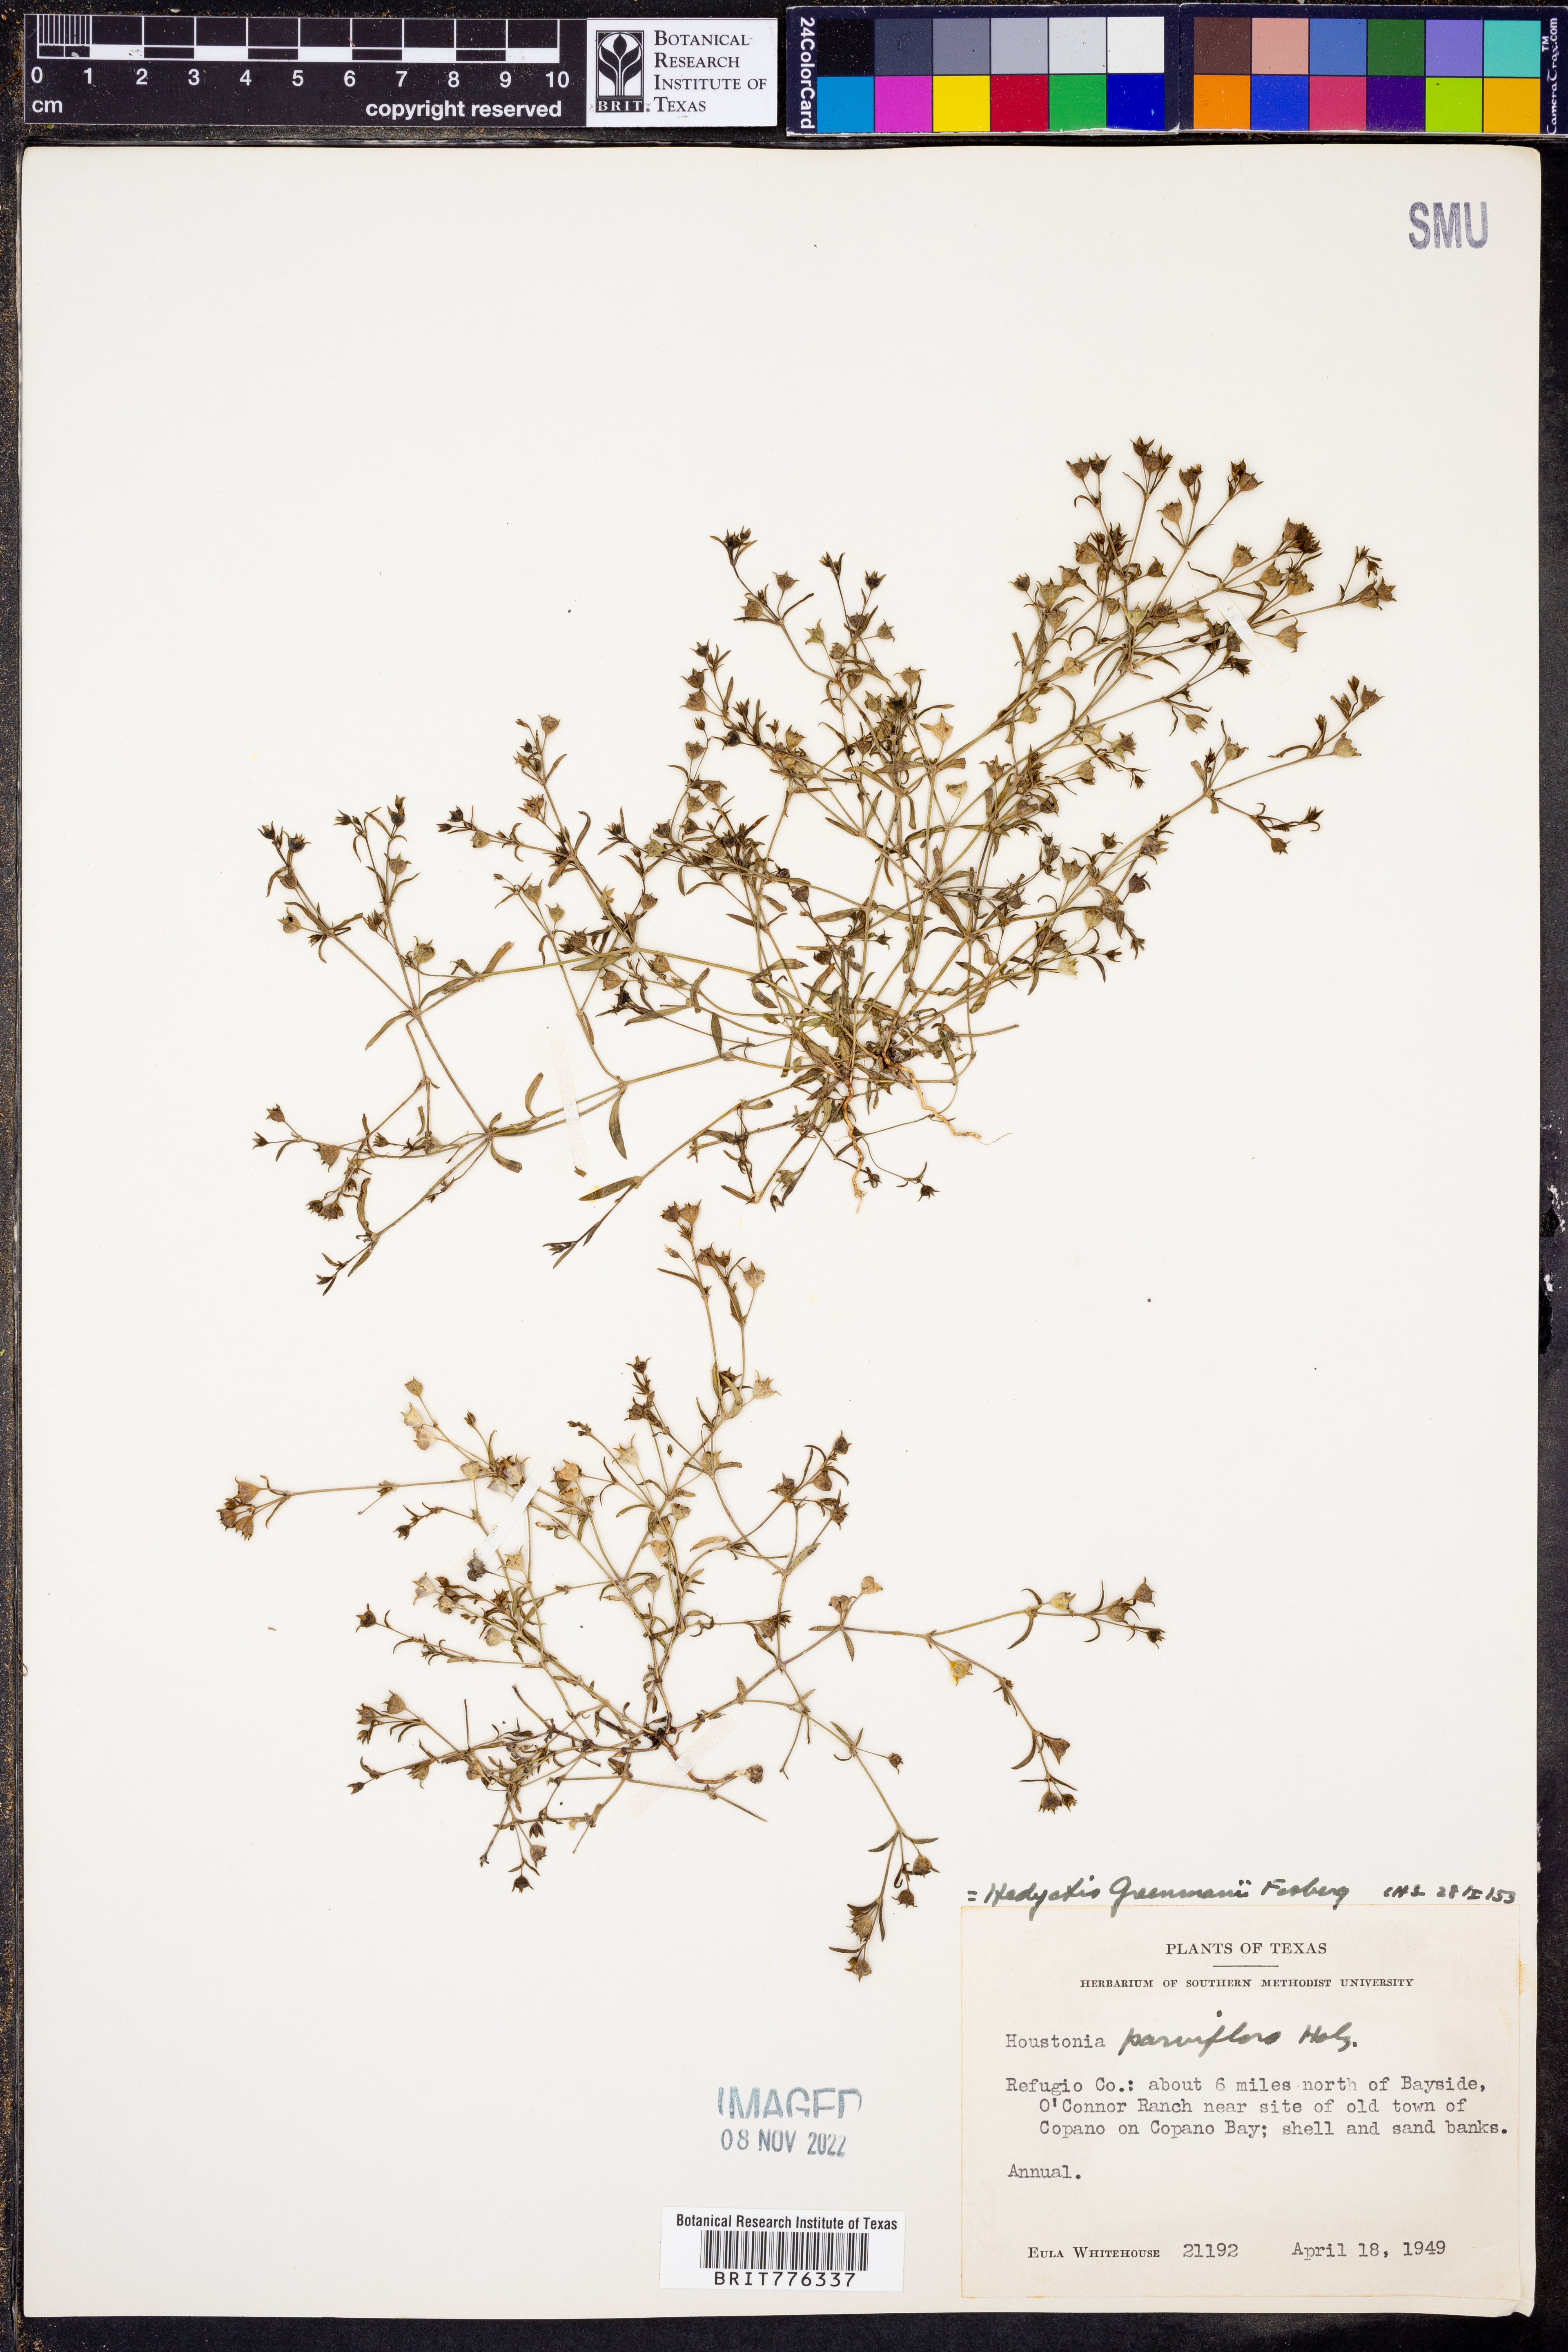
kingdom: Plantae
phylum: Tracheophyta
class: Magnoliopsida
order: Gentianales
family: Rubiaceae
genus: Houstonia
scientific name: Houstonia parviflora
